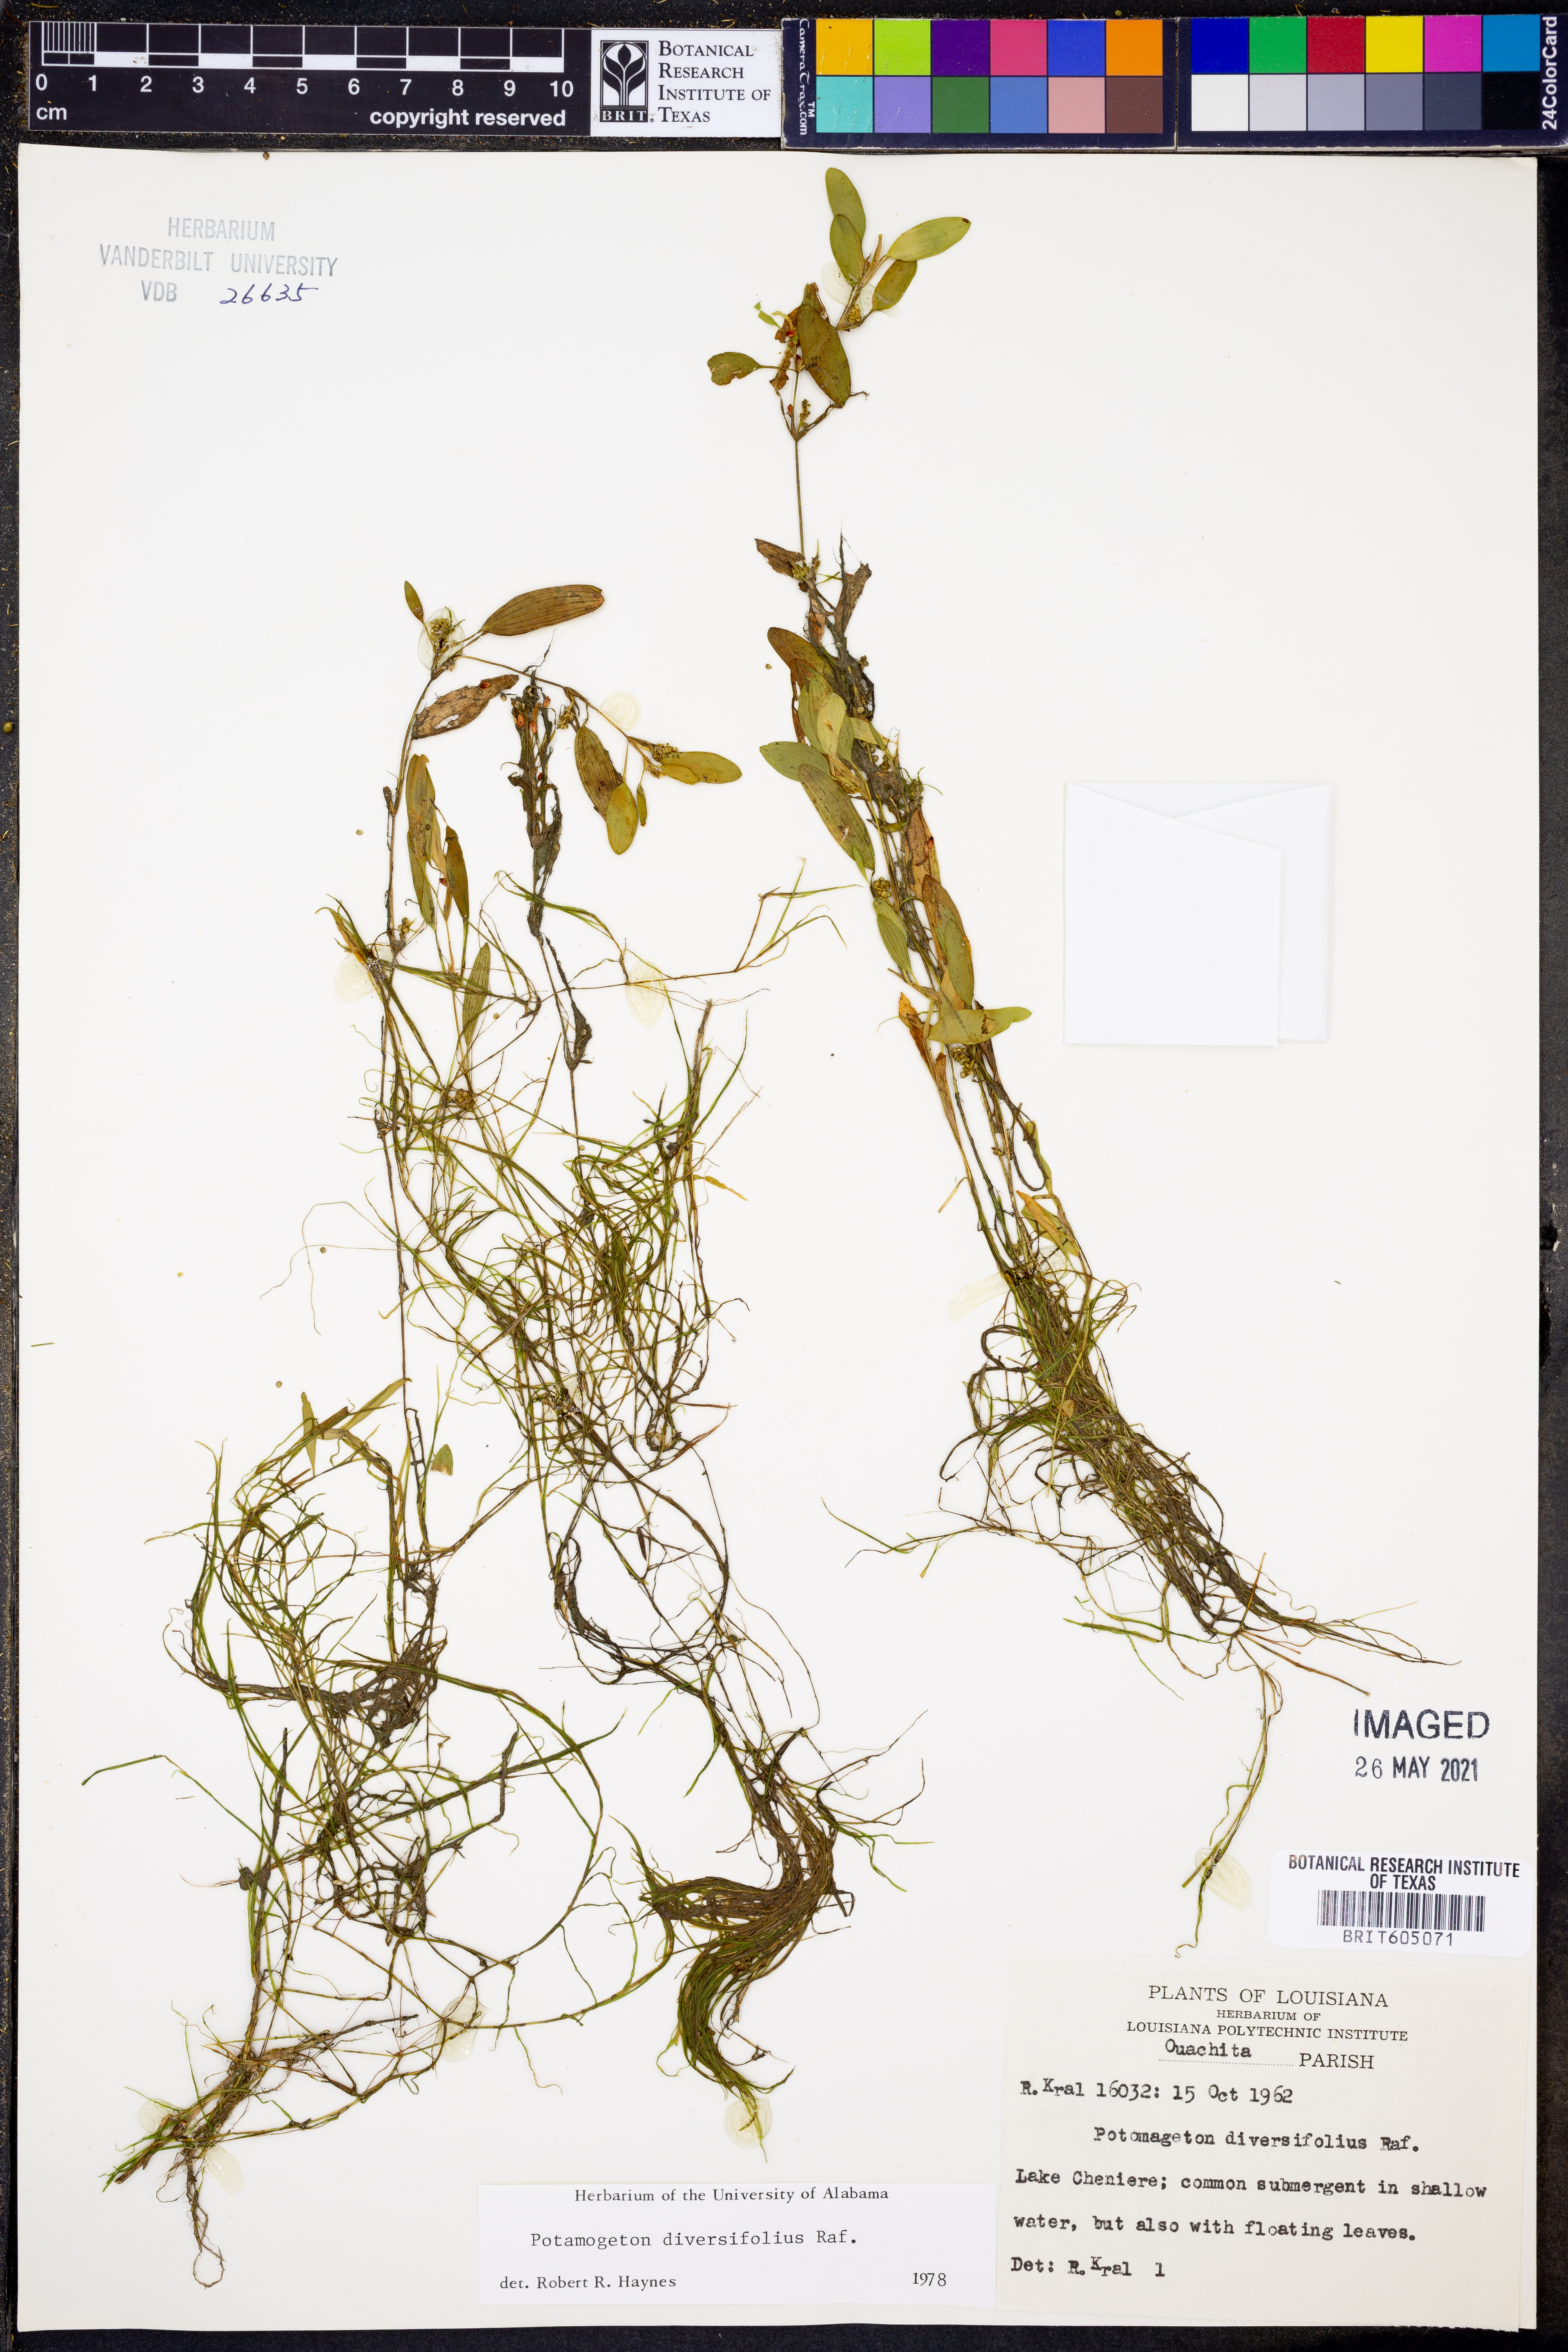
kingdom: Plantae
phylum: Tracheophyta
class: Liliopsida
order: Alismatales
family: Potamogetonaceae
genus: Potamogeton
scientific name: Potamogeton diversifolius
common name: Water-thread pondweed
